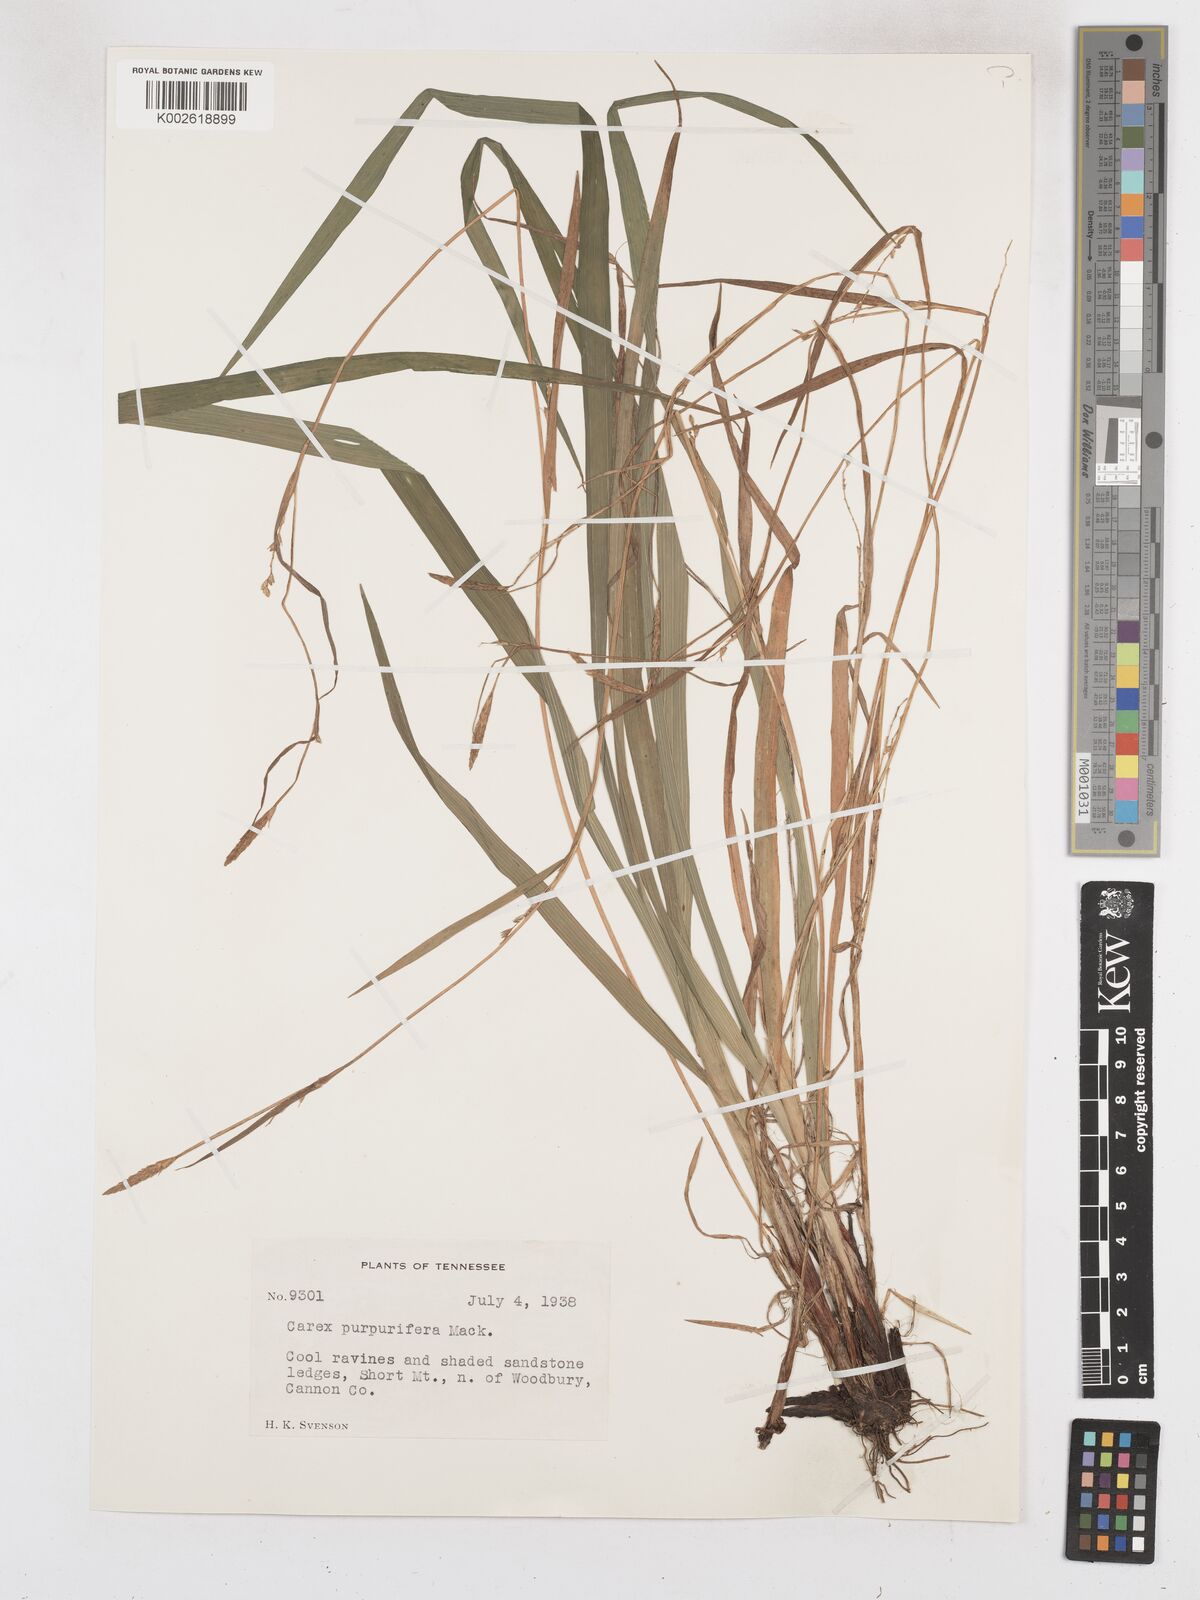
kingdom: Plantae
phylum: Tracheophyta
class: Liliopsida
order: Poales
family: Cyperaceae
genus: Carex
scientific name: Carex purpurifera
